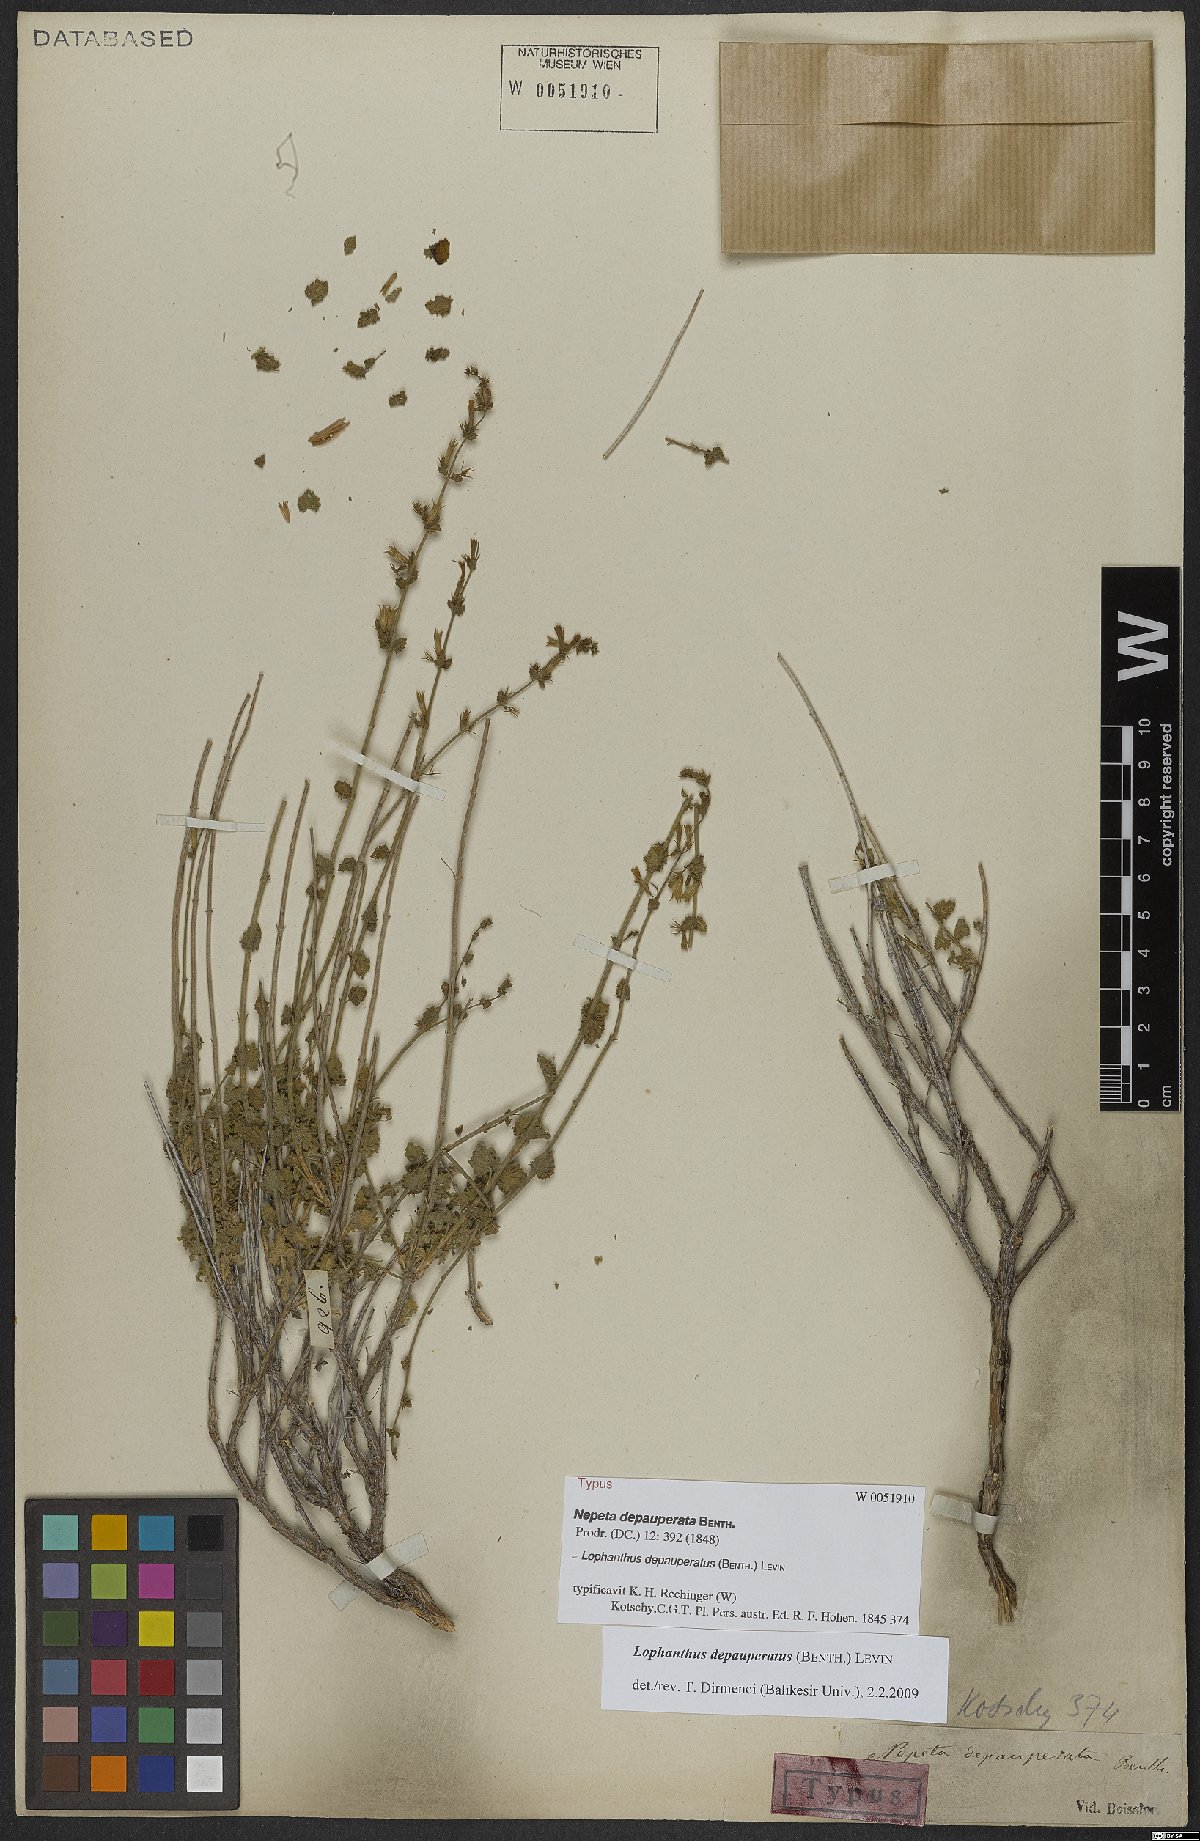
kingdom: Plantae
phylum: Tracheophyta
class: Magnoliopsida
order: Lamiales
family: Lamiaceae
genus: Nepeta
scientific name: Nepeta depauperata
